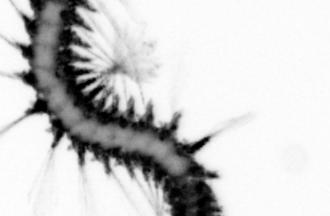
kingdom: Animalia
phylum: Annelida
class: Polychaeta
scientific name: Polychaeta
